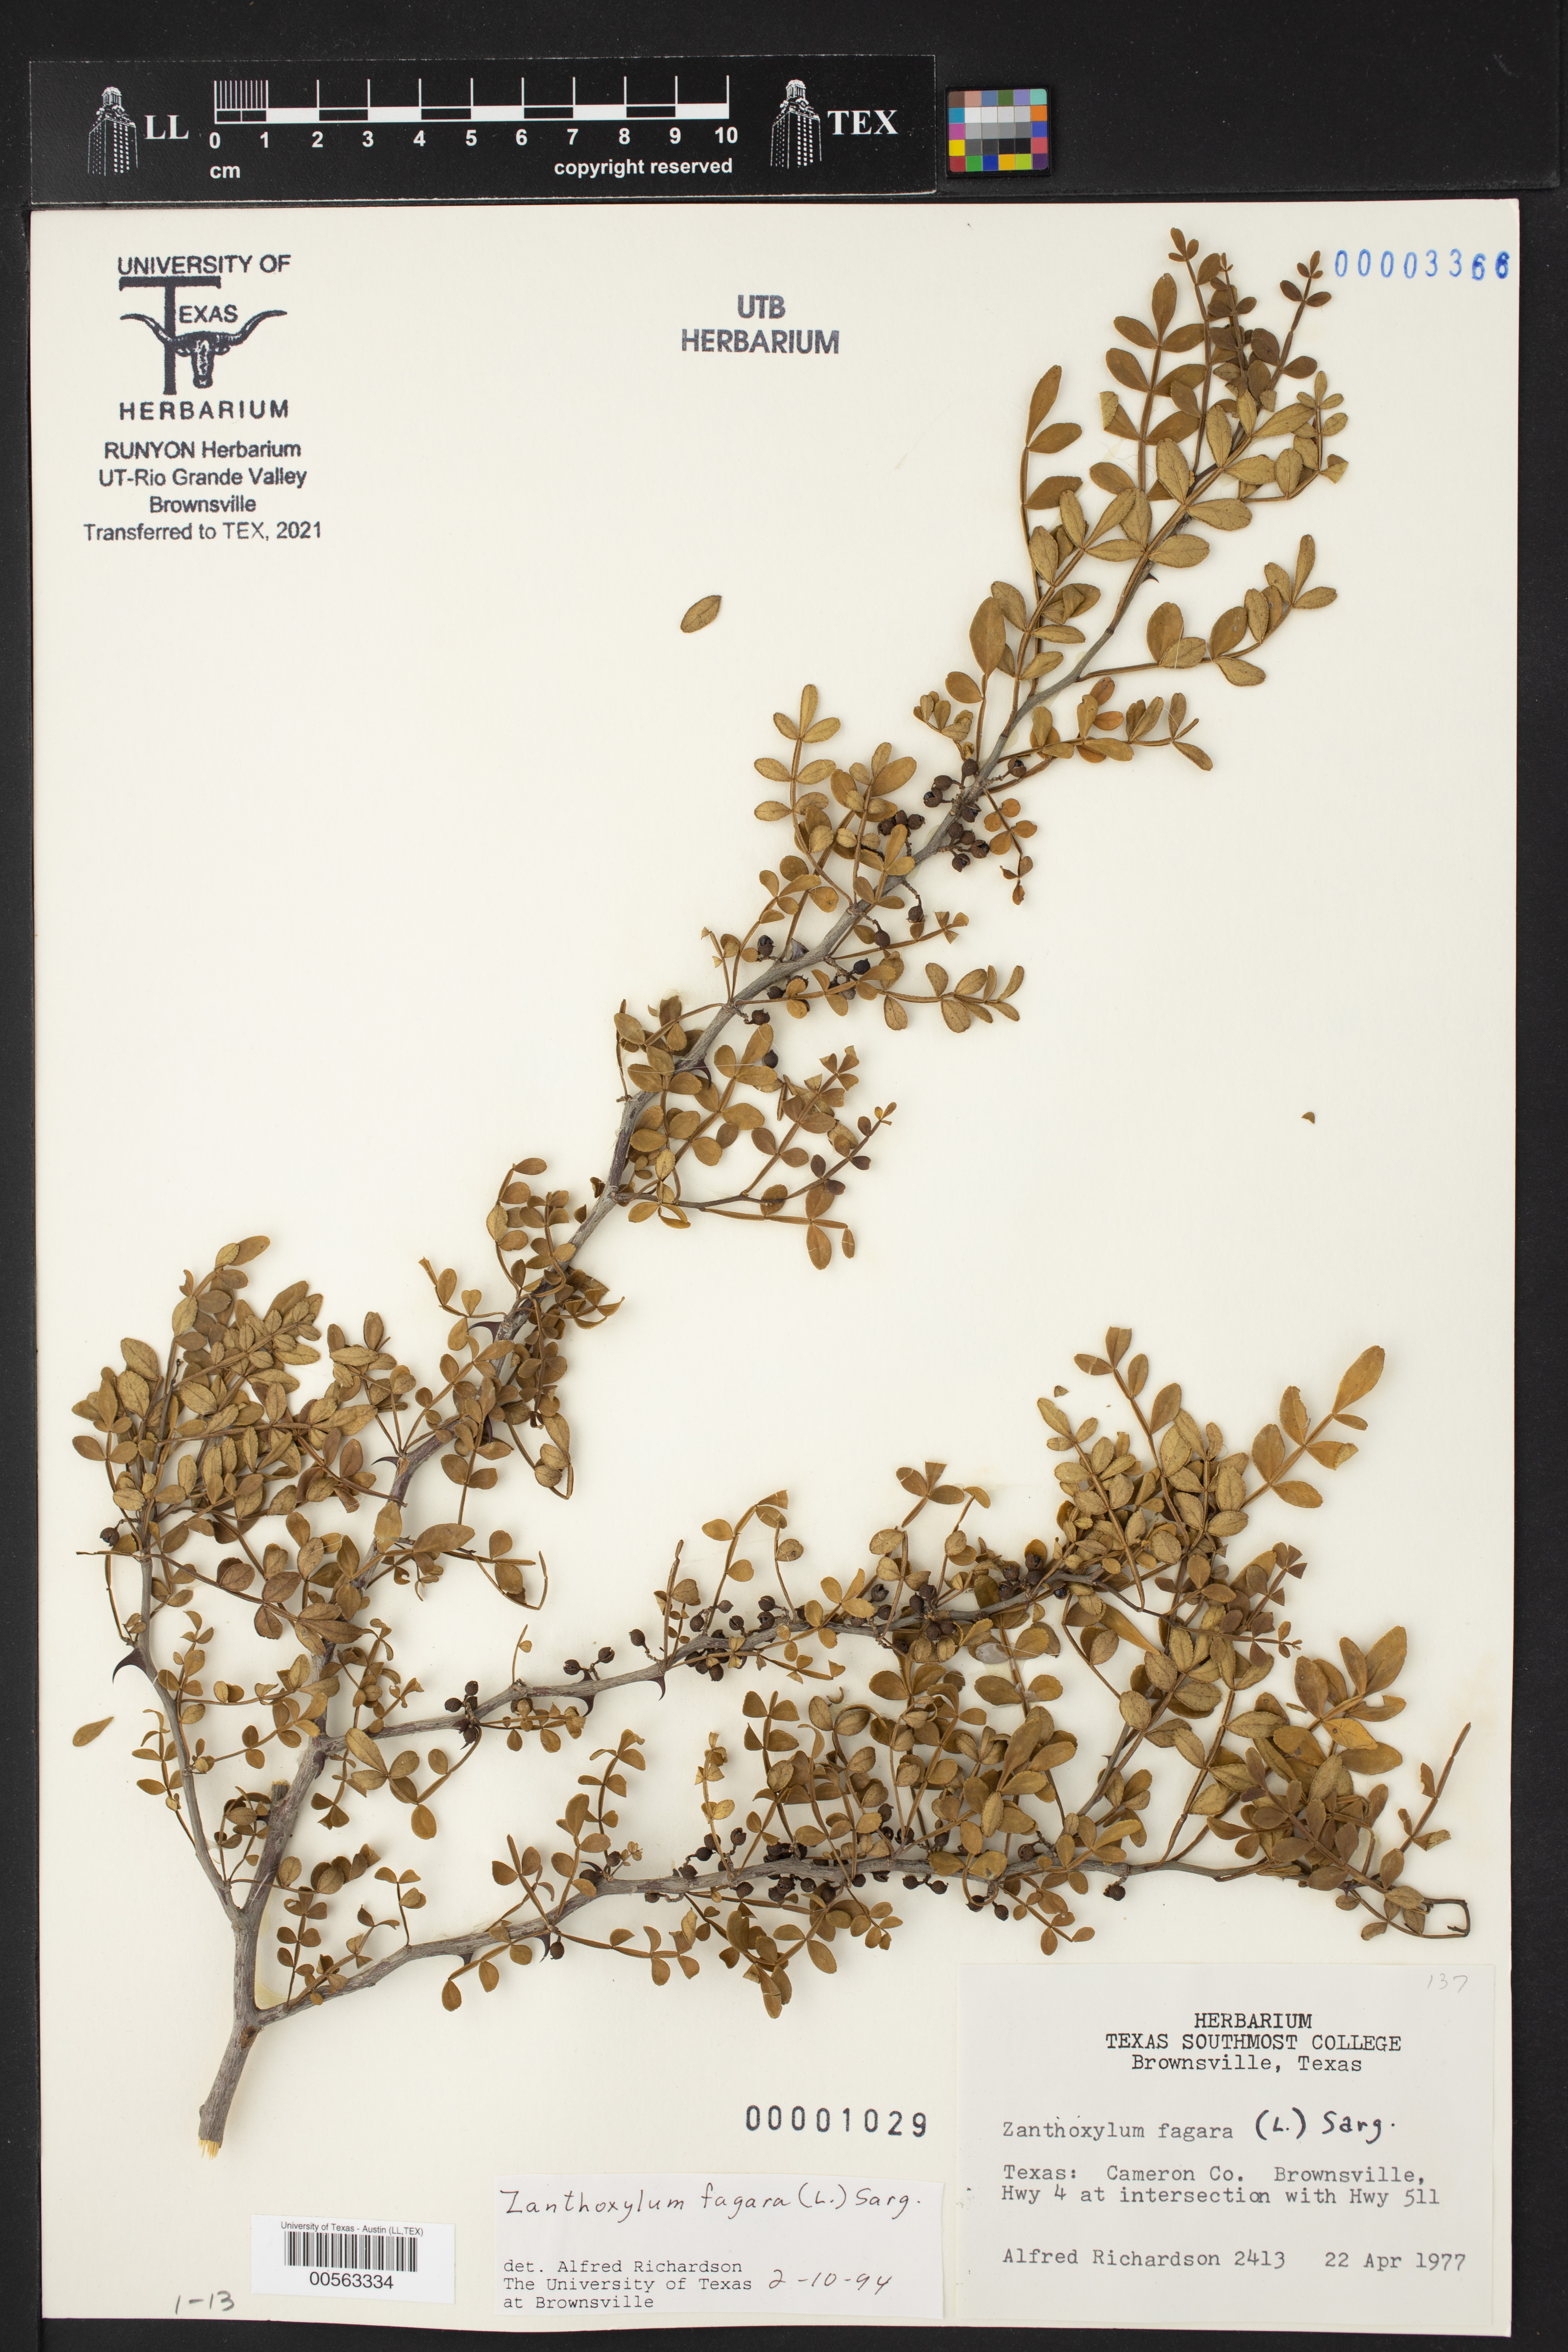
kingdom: Plantae
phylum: Tracheophyta
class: Magnoliopsida
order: Sapindales
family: Rutaceae
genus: Zanthoxylum
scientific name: Zanthoxylum fagara
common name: Lime prickly-ash
